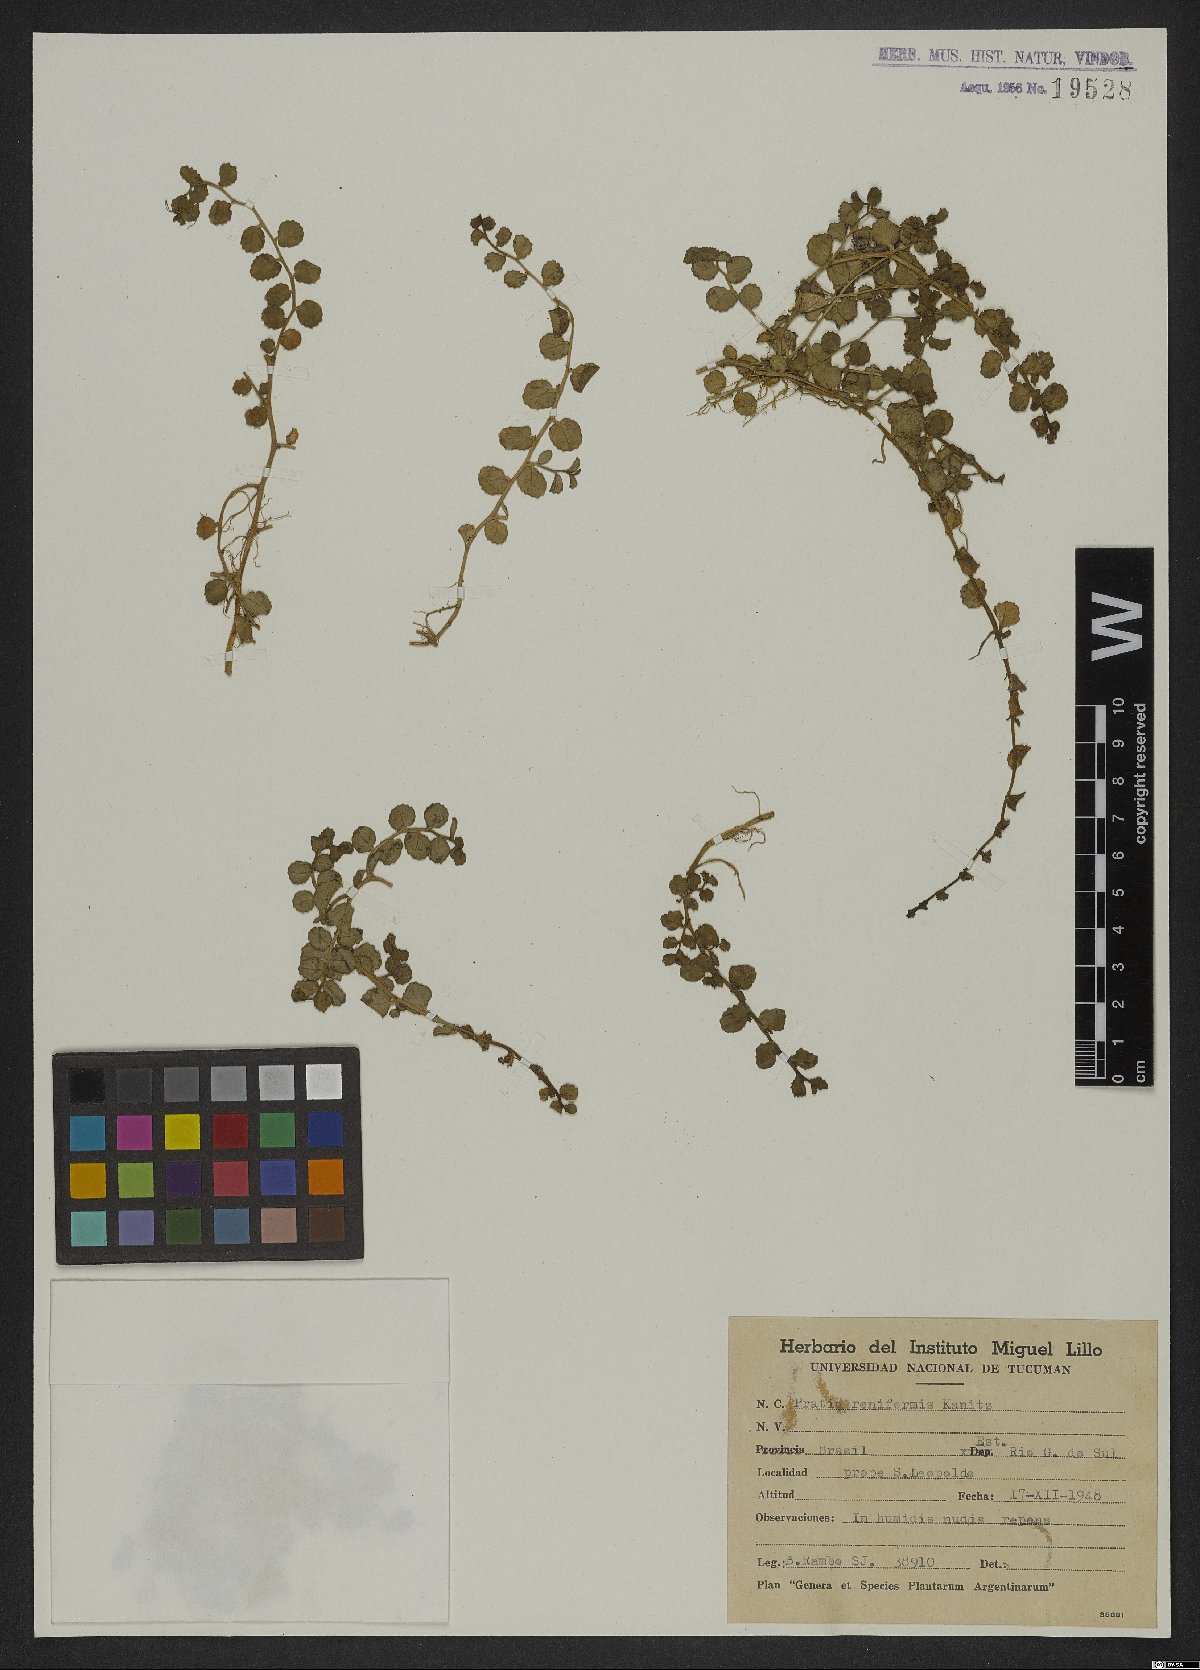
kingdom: Plantae
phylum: Tracheophyta
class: Magnoliopsida
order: Asterales
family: Campanulaceae
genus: Lobelia
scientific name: Lobelia reniformis
